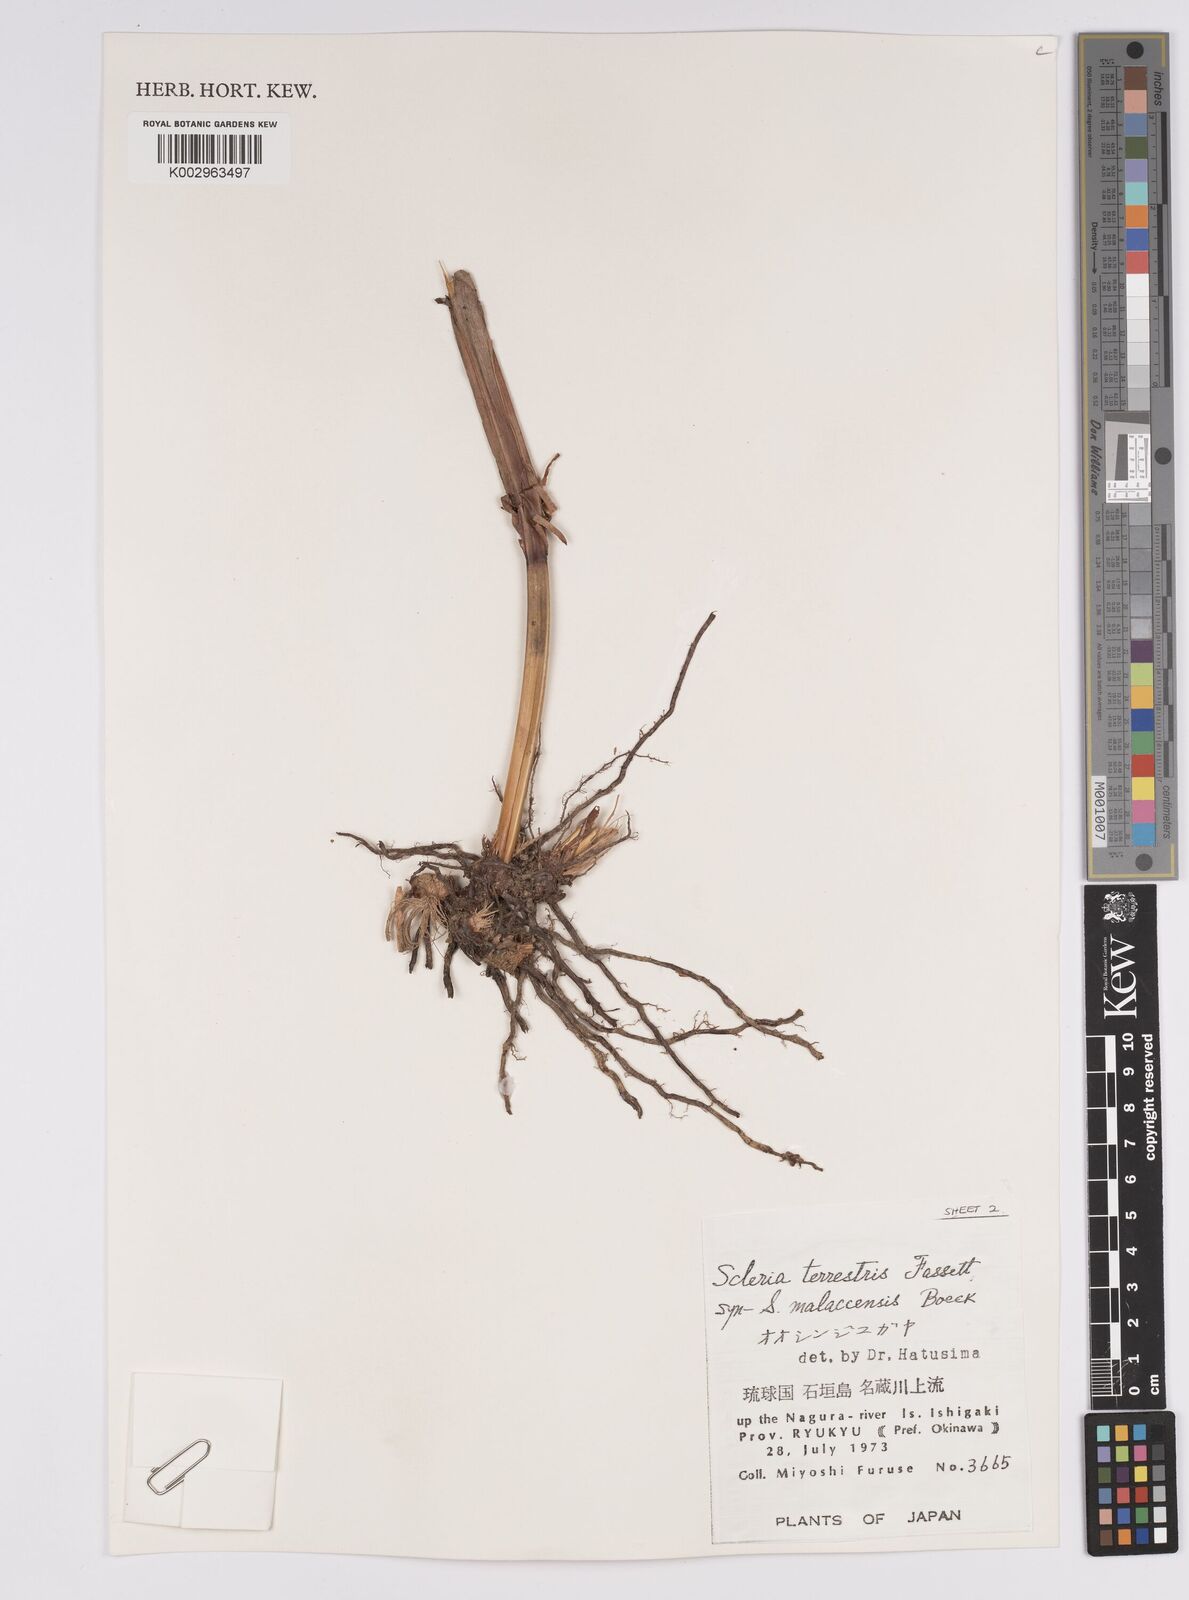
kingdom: Plantae
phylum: Tracheophyta
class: Liliopsida
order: Poales
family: Cyperaceae
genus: Scleria
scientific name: Scleria terrestris
